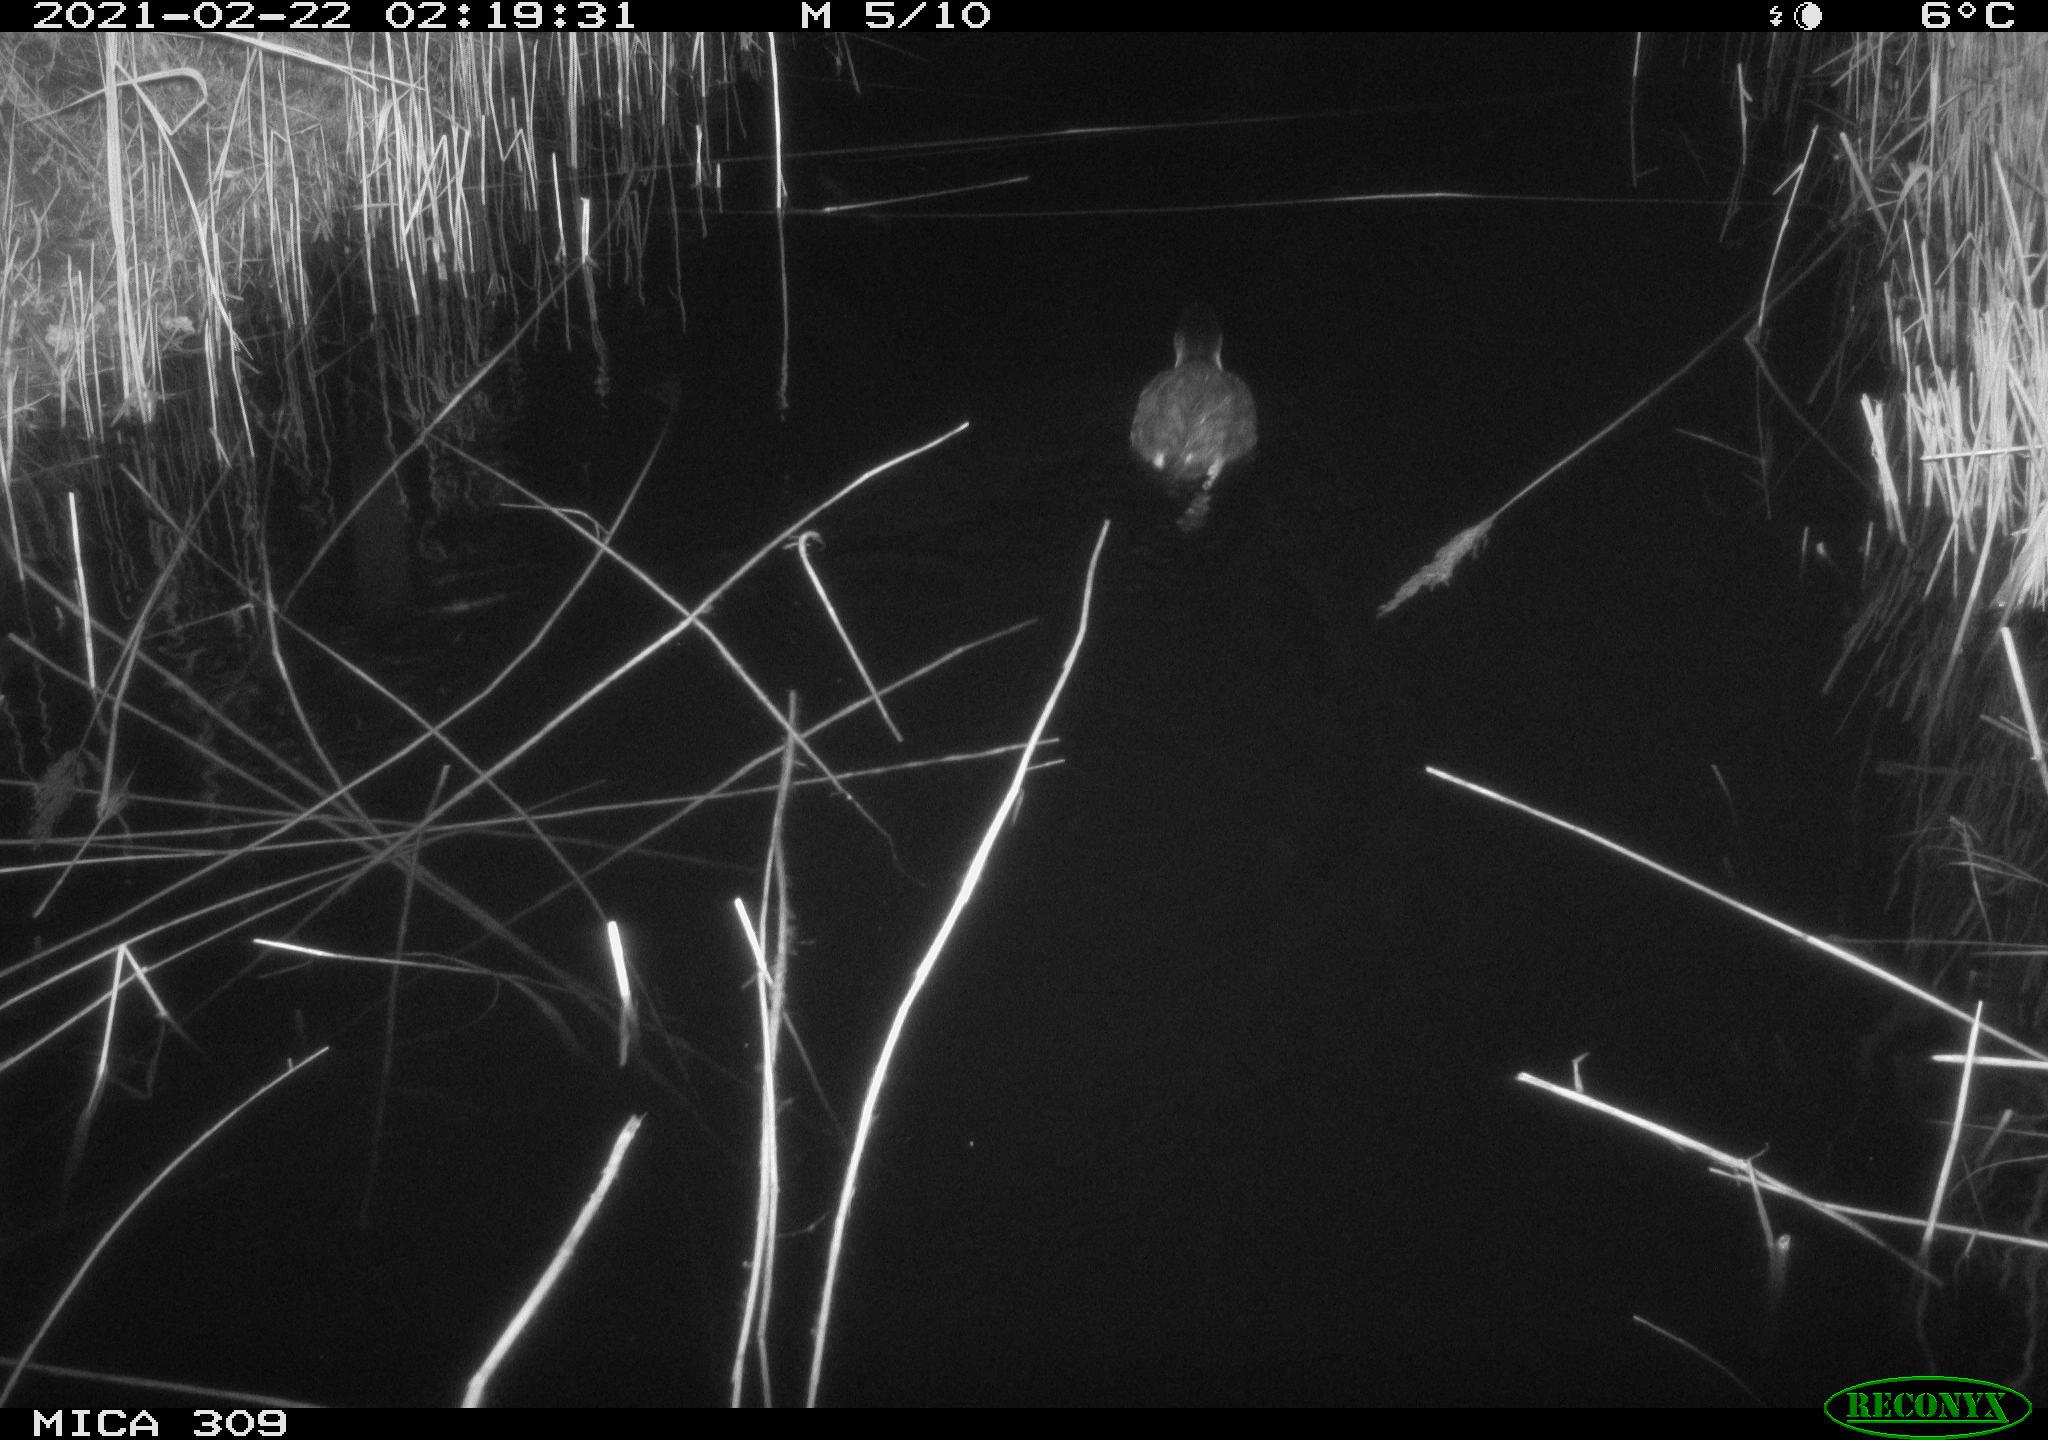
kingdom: Animalia
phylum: Chordata
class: Aves
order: Gruiformes
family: Rallidae
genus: Fulica
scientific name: Fulica atra
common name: Eurasian coot
